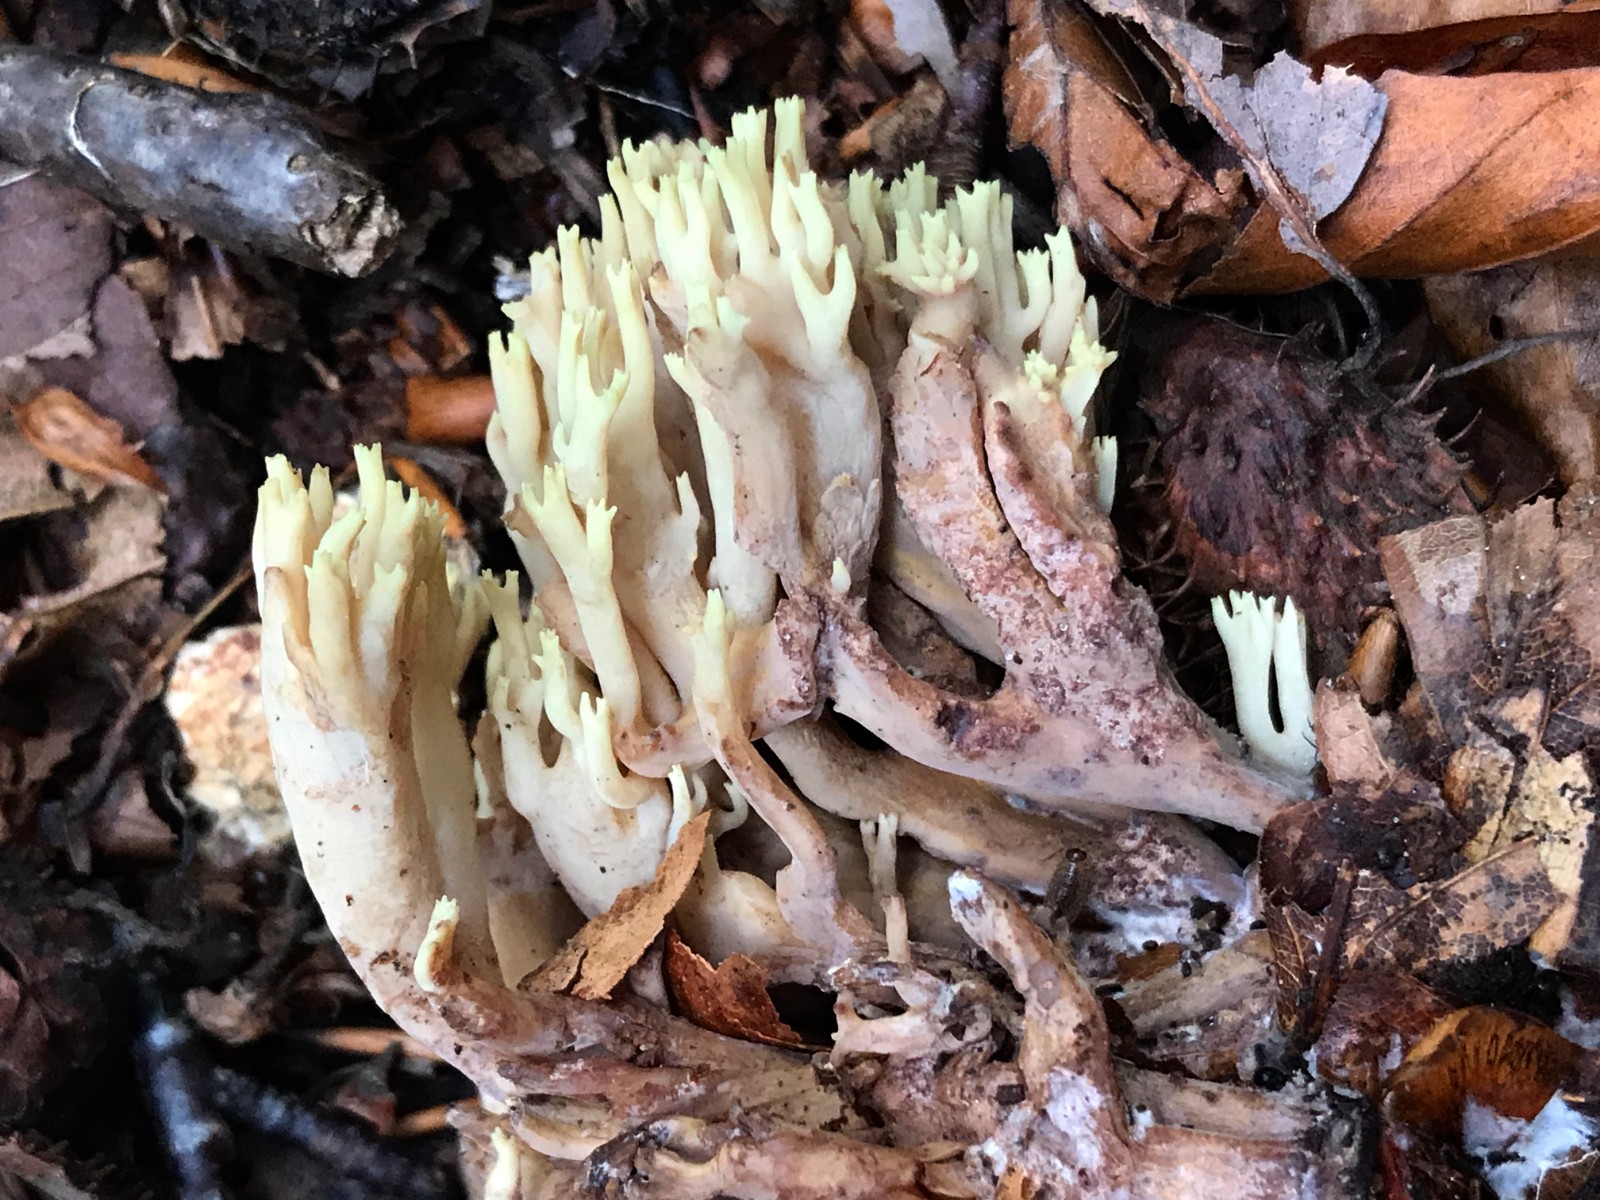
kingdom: Fungi
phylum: Basidiomycota
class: Agaricomycetes
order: Gomphales
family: Gomphaceae
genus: Ramaria
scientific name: Ramaria stricta
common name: rank koralsvamp
